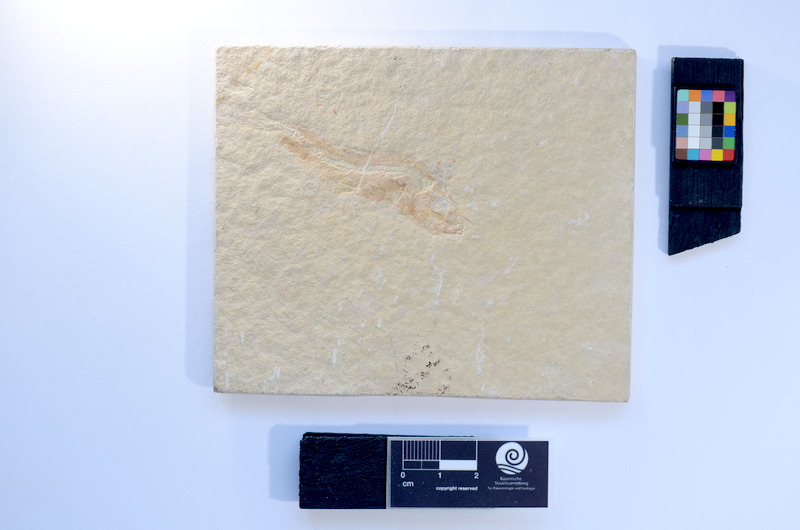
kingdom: Animalia
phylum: Chordata
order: Salmoniformes
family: Orthogonikleithridae
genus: Leptolepides
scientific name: Leptolepides
